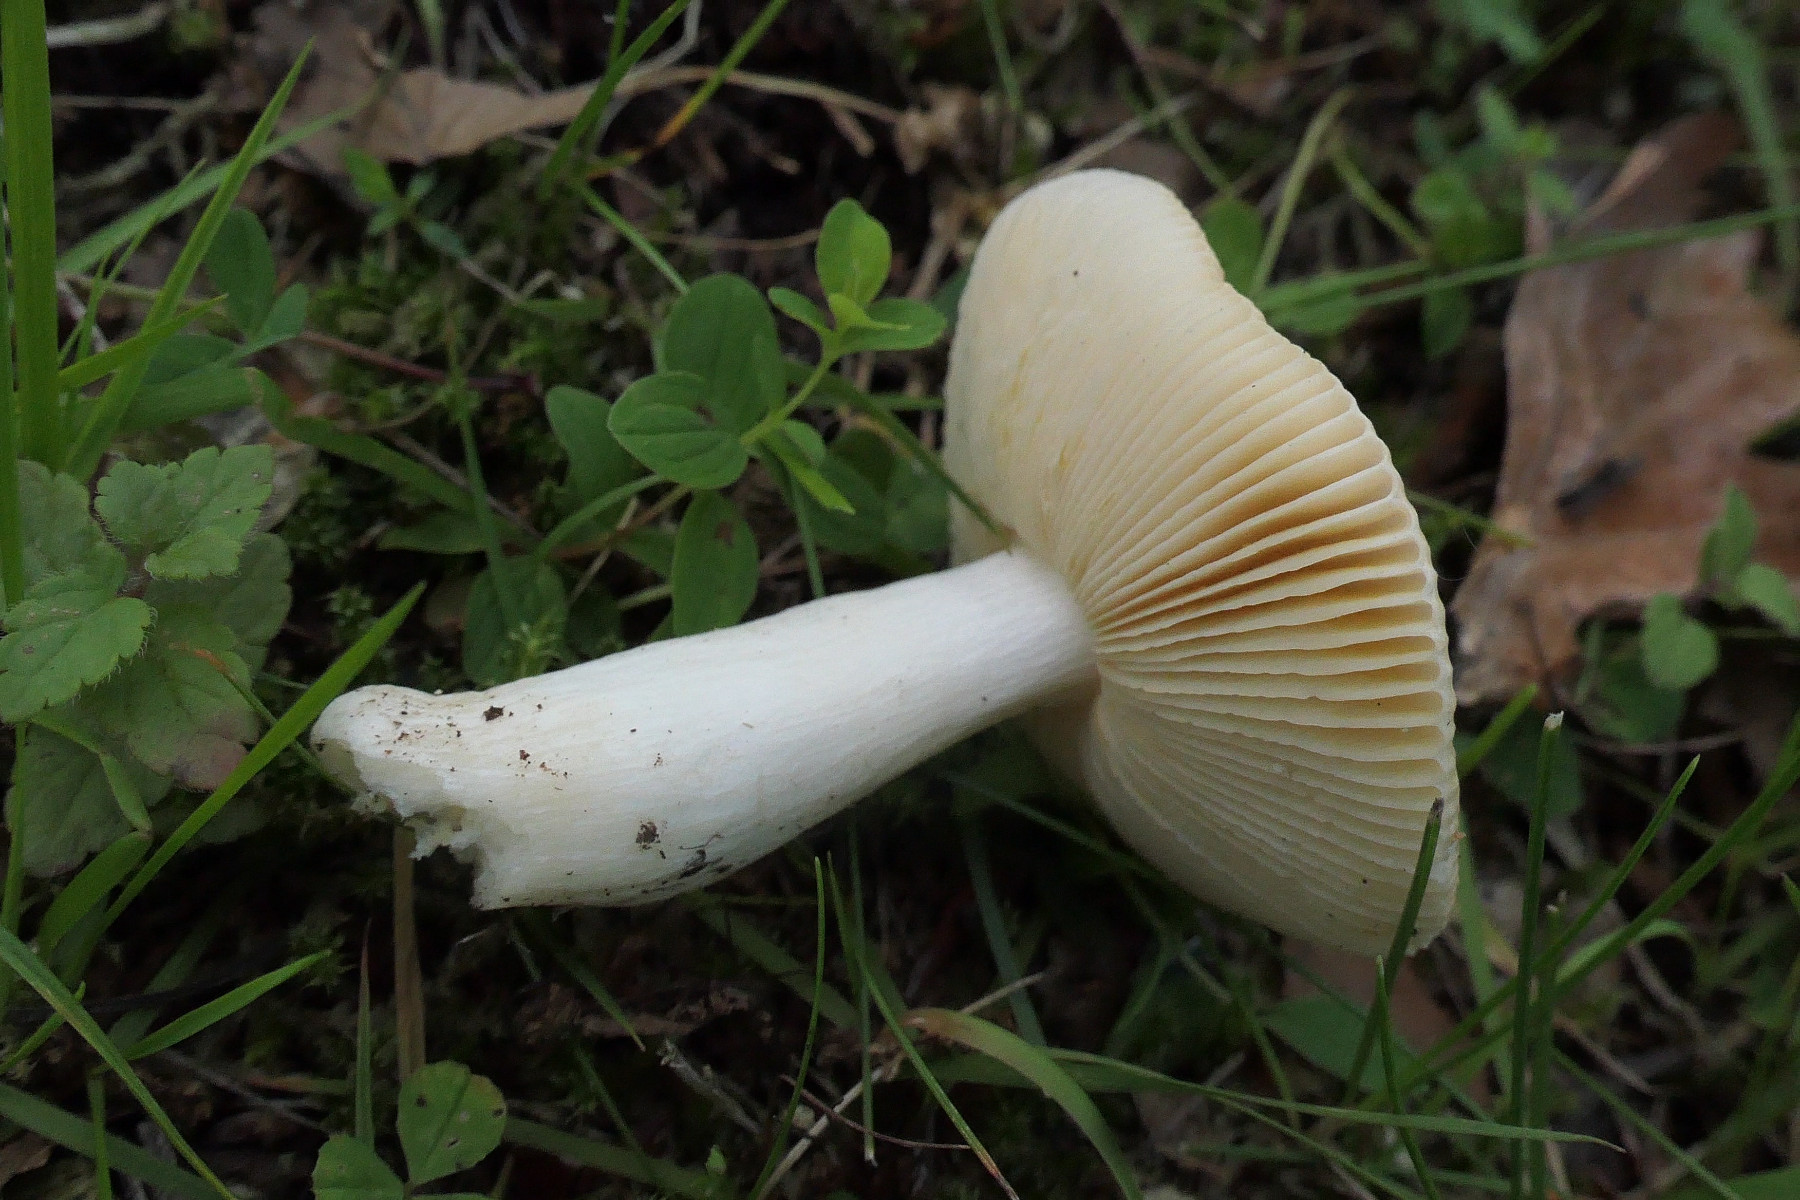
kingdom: Fungi
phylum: Basidiomycota
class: Agaricomycetes
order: Russulales
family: Russulaceae
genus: Russula
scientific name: Russula risigallina
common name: abrikos-skørhat
